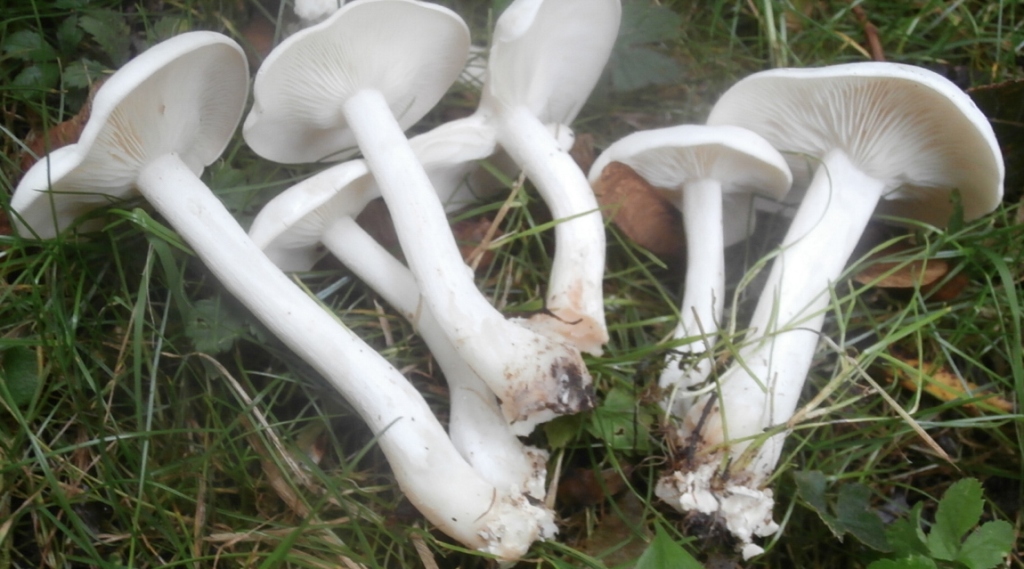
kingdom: Fungi
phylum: Basidiomycota
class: Agaricomycetes
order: Agaricales
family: Tricholomataceae
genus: Leucocybe
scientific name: Leucocybe connata
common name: knippe-tragthat
